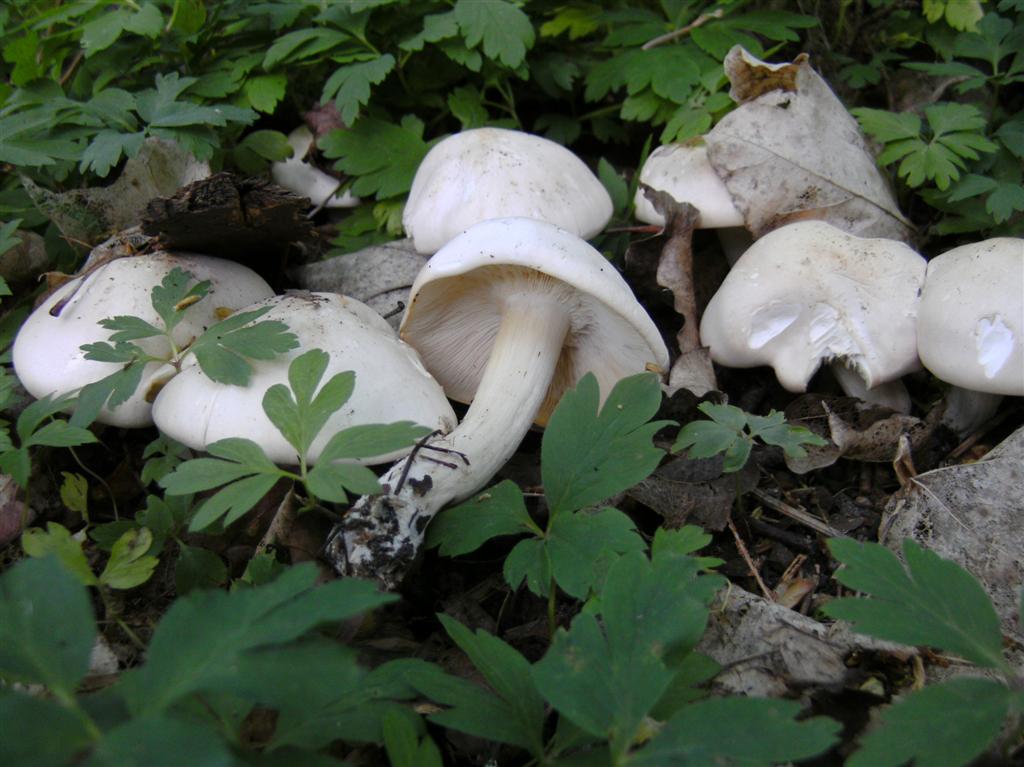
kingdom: Fungi
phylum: Basidiomycota
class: Agaricomycetes
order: Agaricales
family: Lyophyllaceae
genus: Calocybe
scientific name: Calocybe gambosa
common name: vårmusseron
